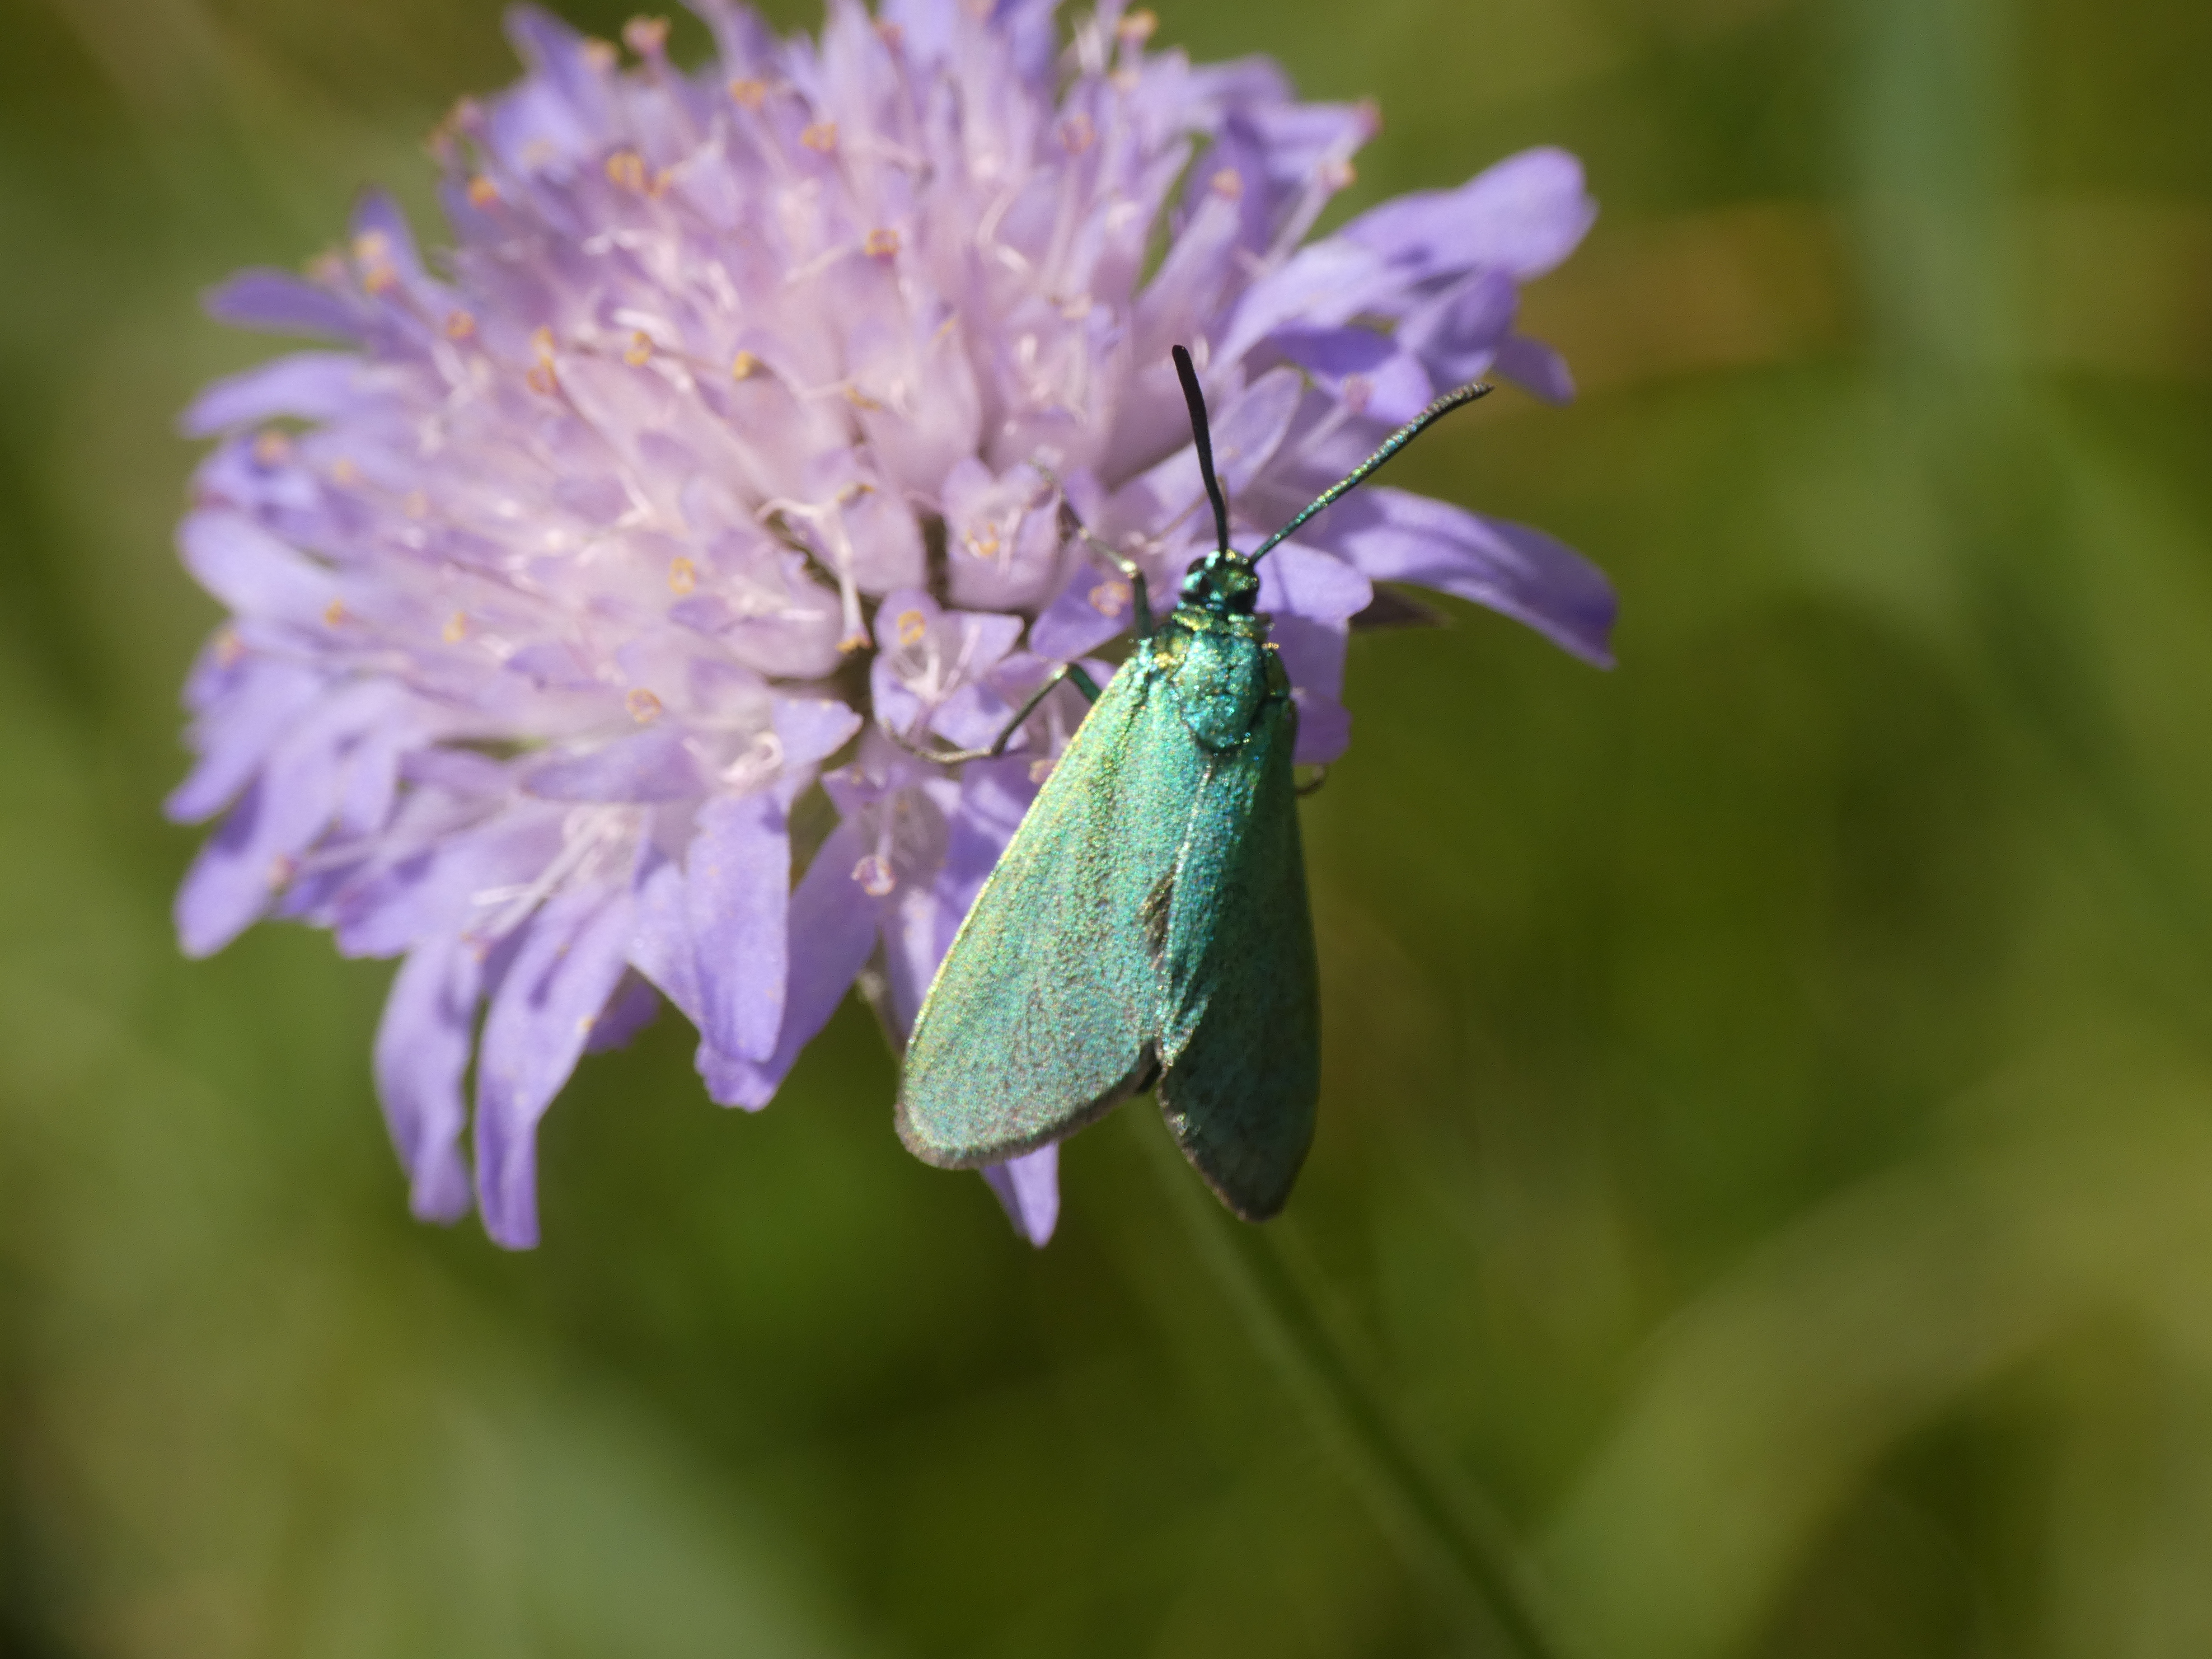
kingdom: Animalia
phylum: Arthropoda
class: Insecta
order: Lepidoptera
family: Zygaenidae
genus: Adscita
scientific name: Adscita statices
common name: Metalvinge
